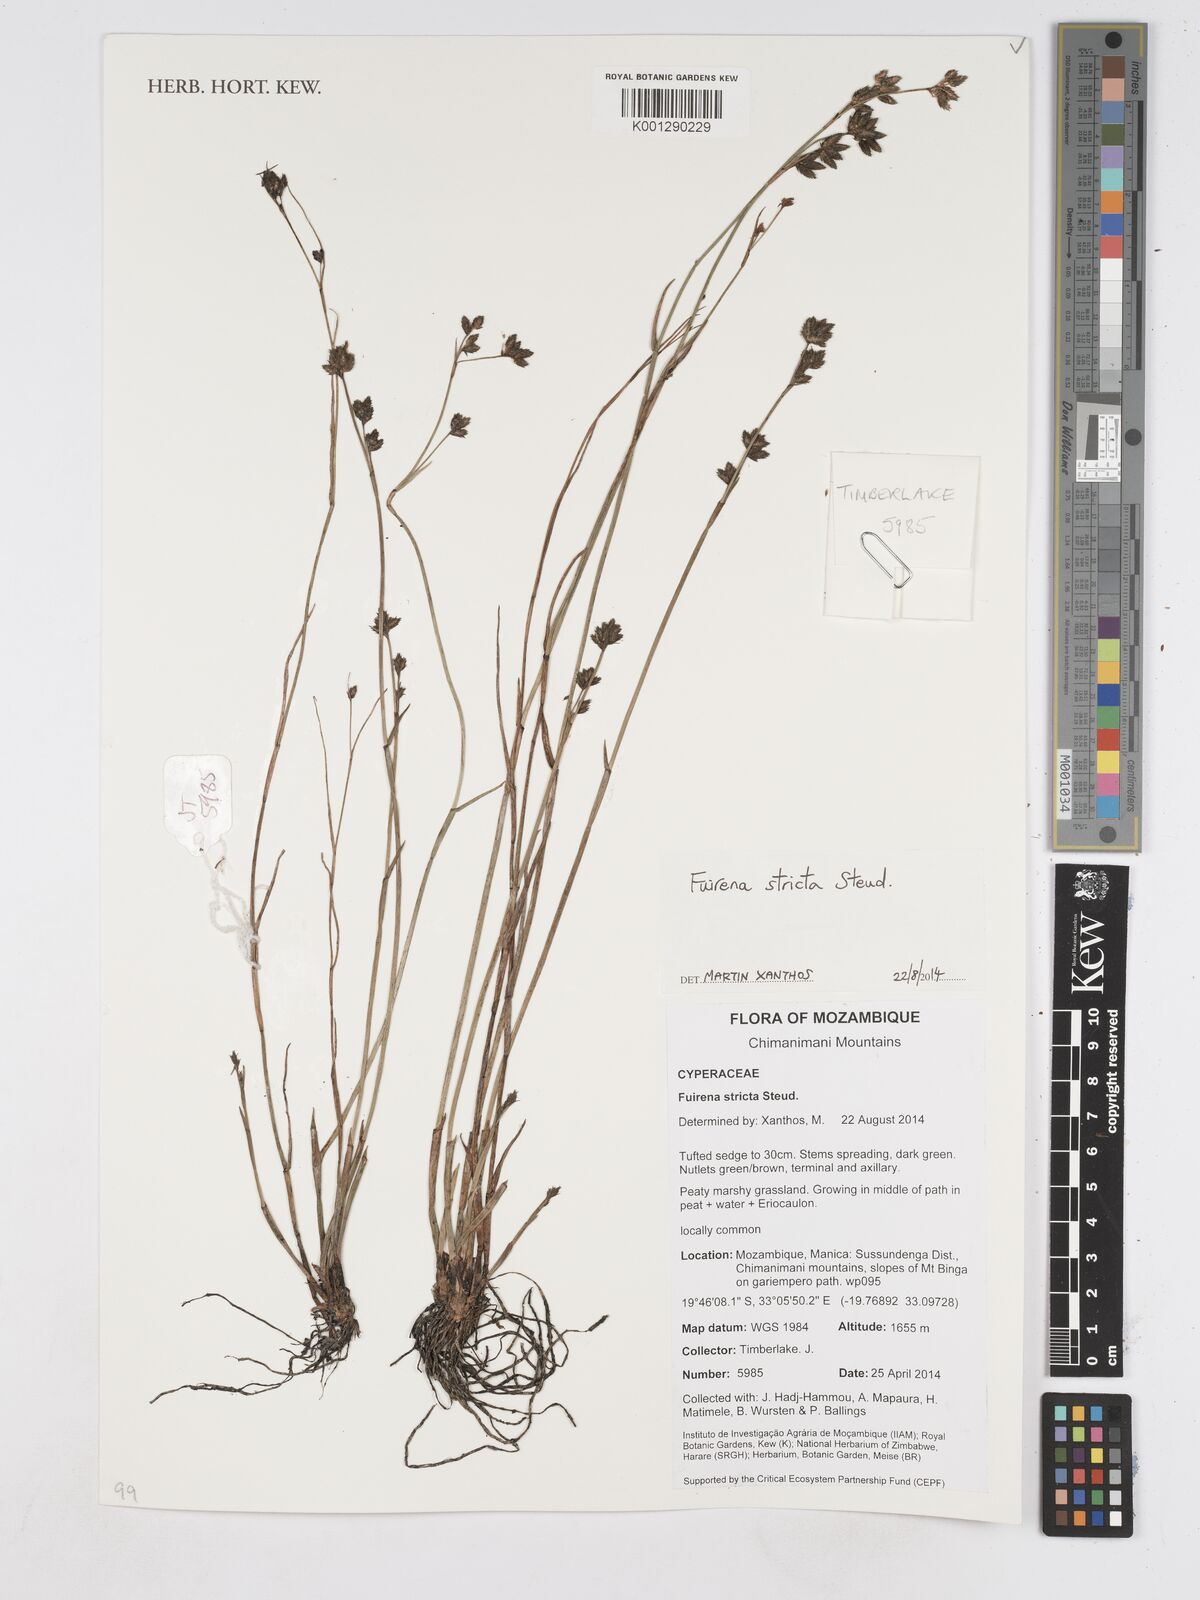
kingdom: Plantae
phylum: Tracheophyta
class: Liliopsida
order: Poales
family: Cyperaceae
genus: Fuirena
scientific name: Fuirena stricta
